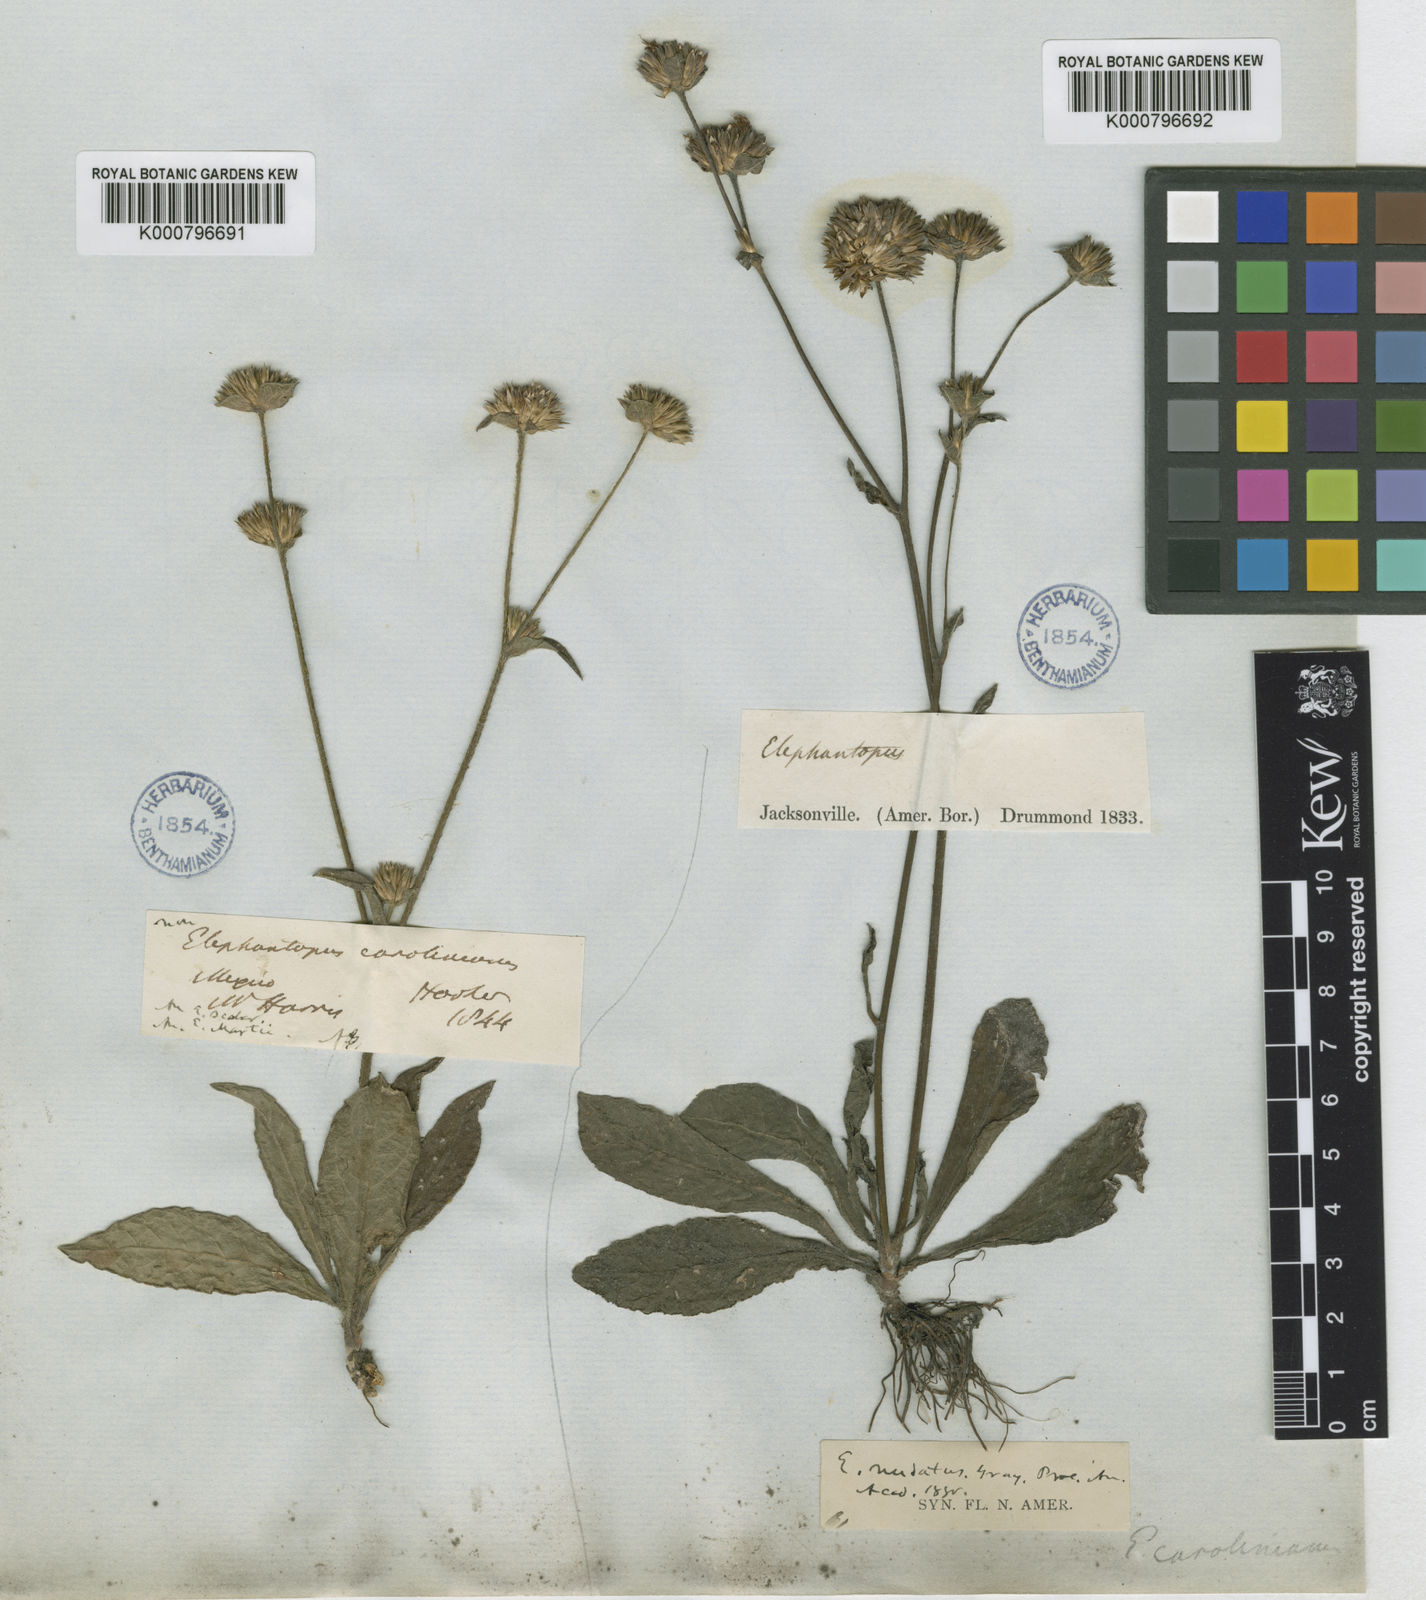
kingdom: Plantae
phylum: Tracheophyta
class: Magnoliopsida
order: Asterales
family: Asteraceae
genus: Elephantopus
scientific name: Elephantopus nudatus
